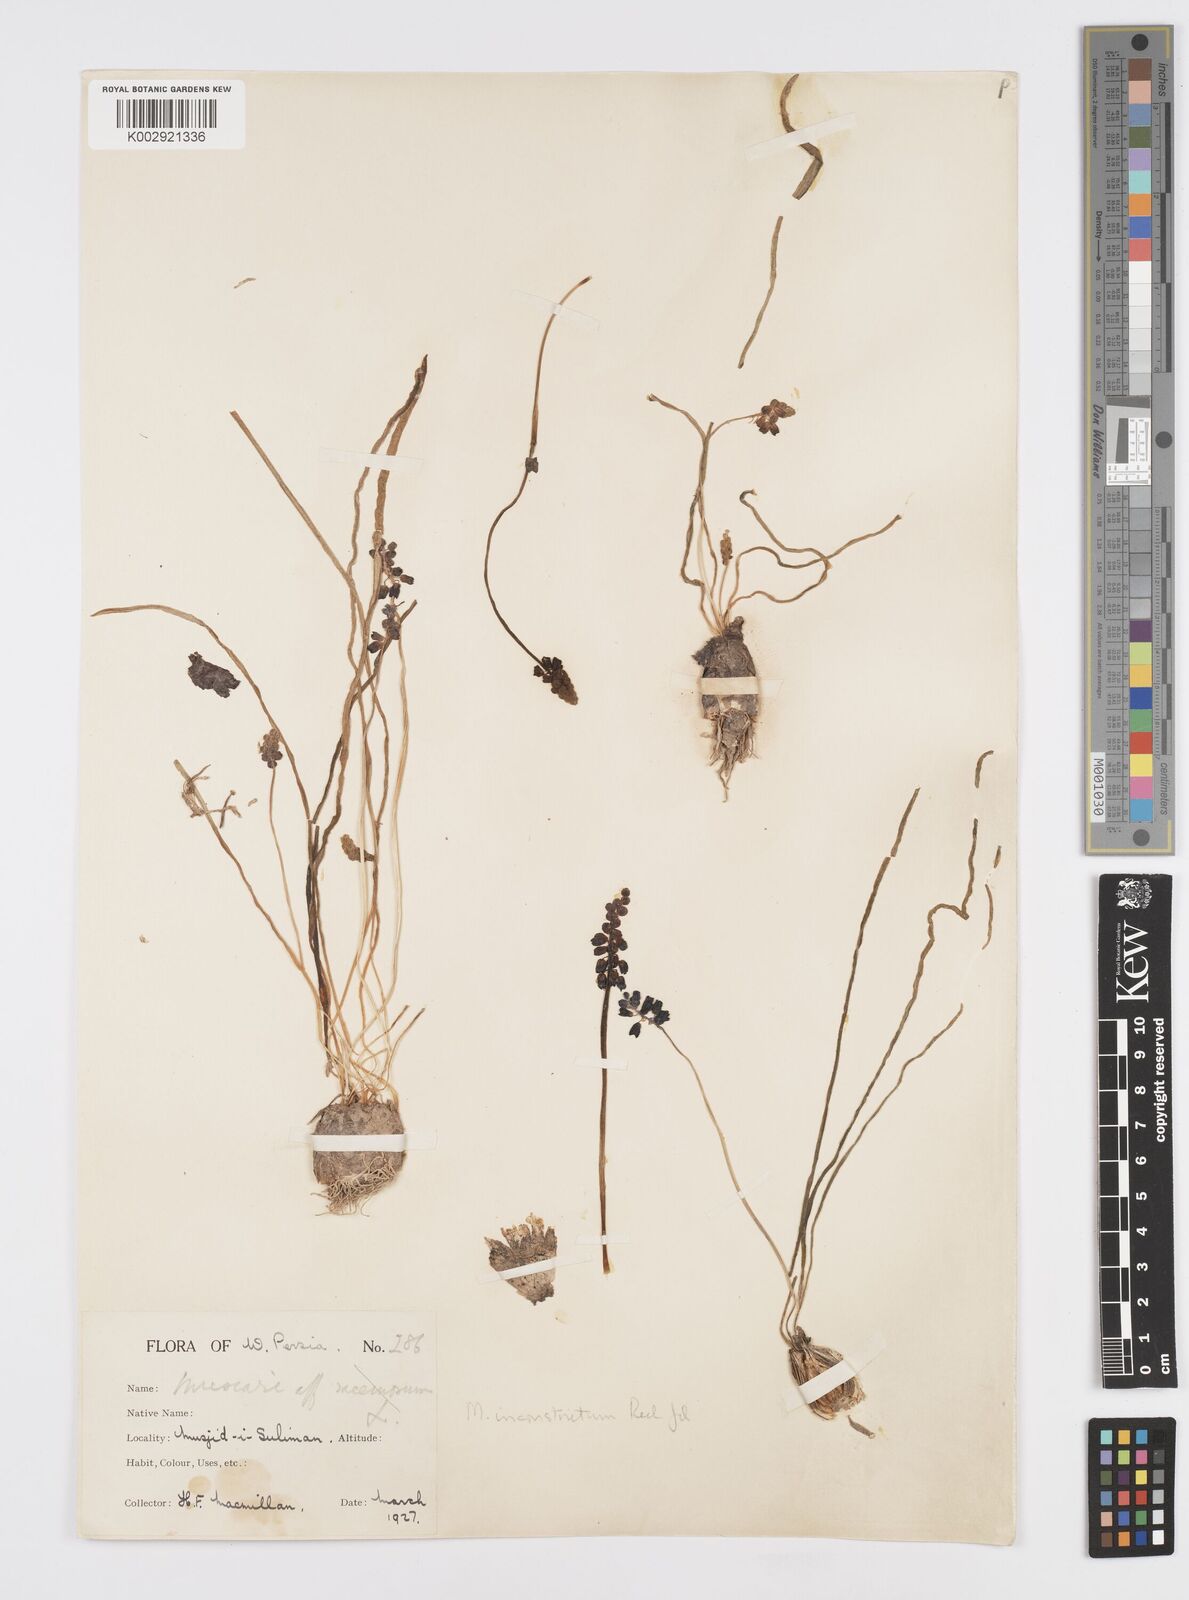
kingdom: Plantae
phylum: Tracheophyta
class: Liliopsida
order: Asparagales
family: Asparagaceae
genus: Muscari
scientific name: Muscari inconstrictum
